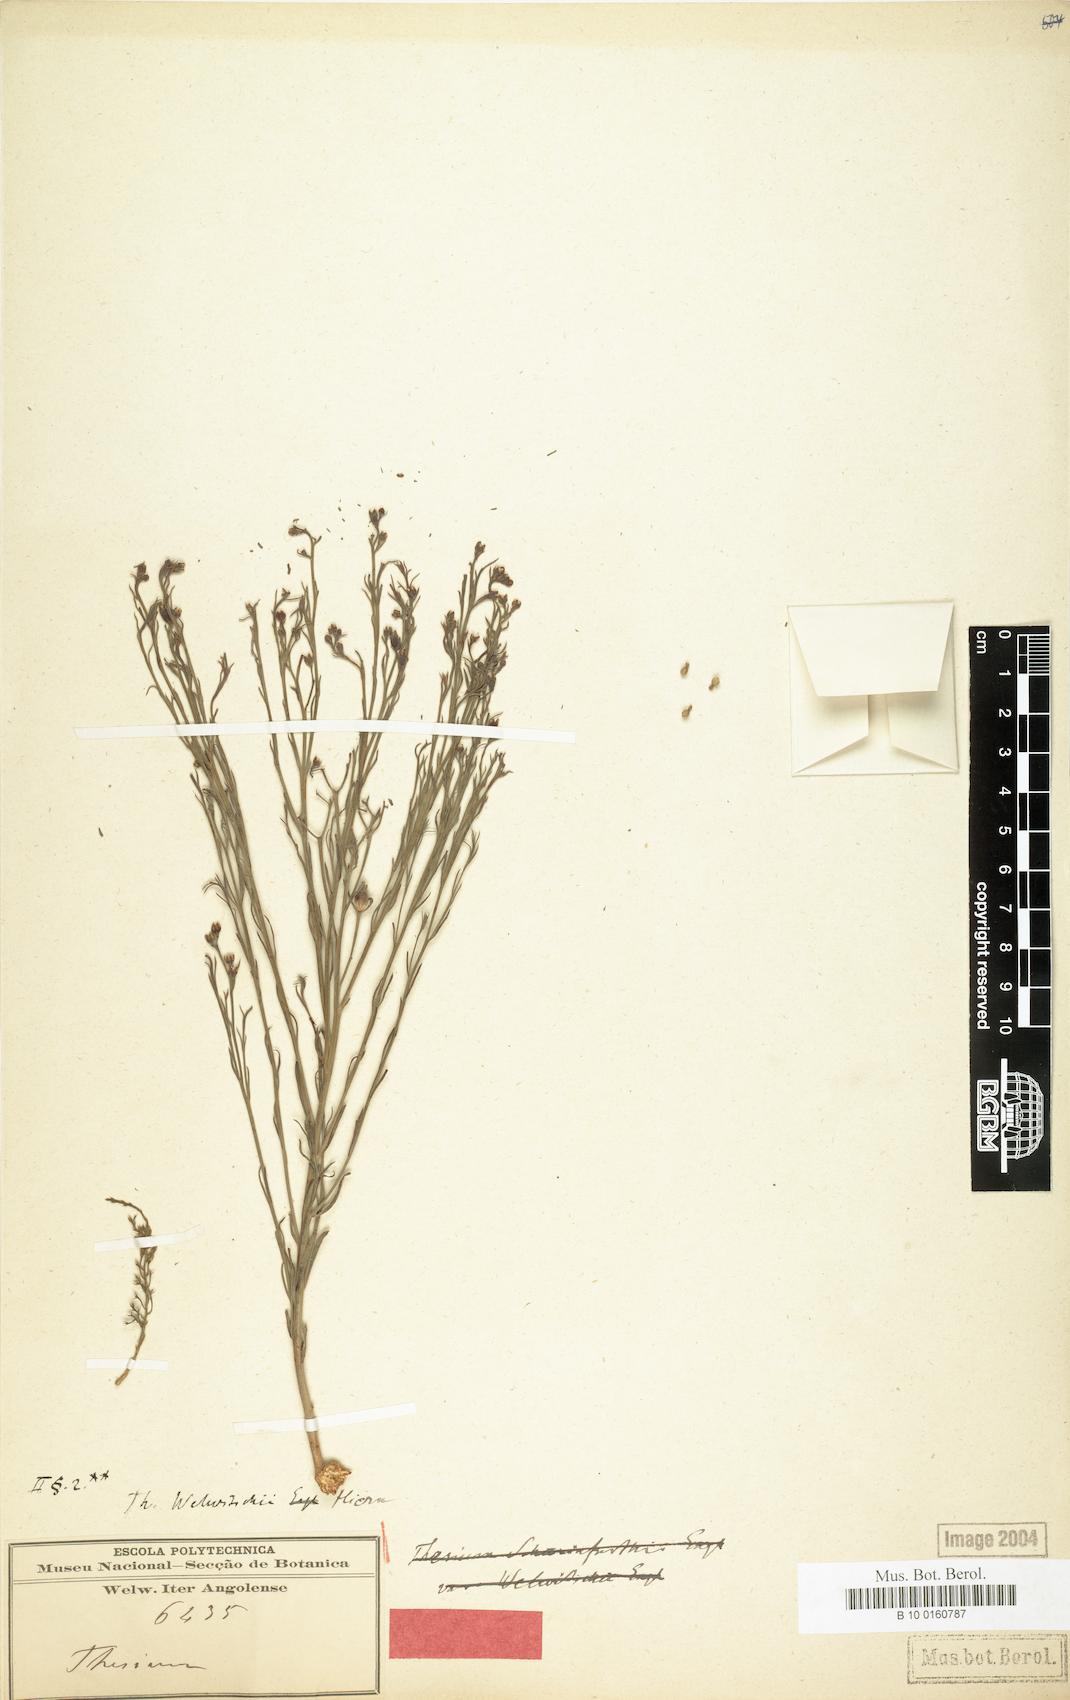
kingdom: Plantae
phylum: Tracheophyta
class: Magnoliopsida
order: Santalales
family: Thesiaceae
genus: Thesium
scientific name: Thesium welwitschii
